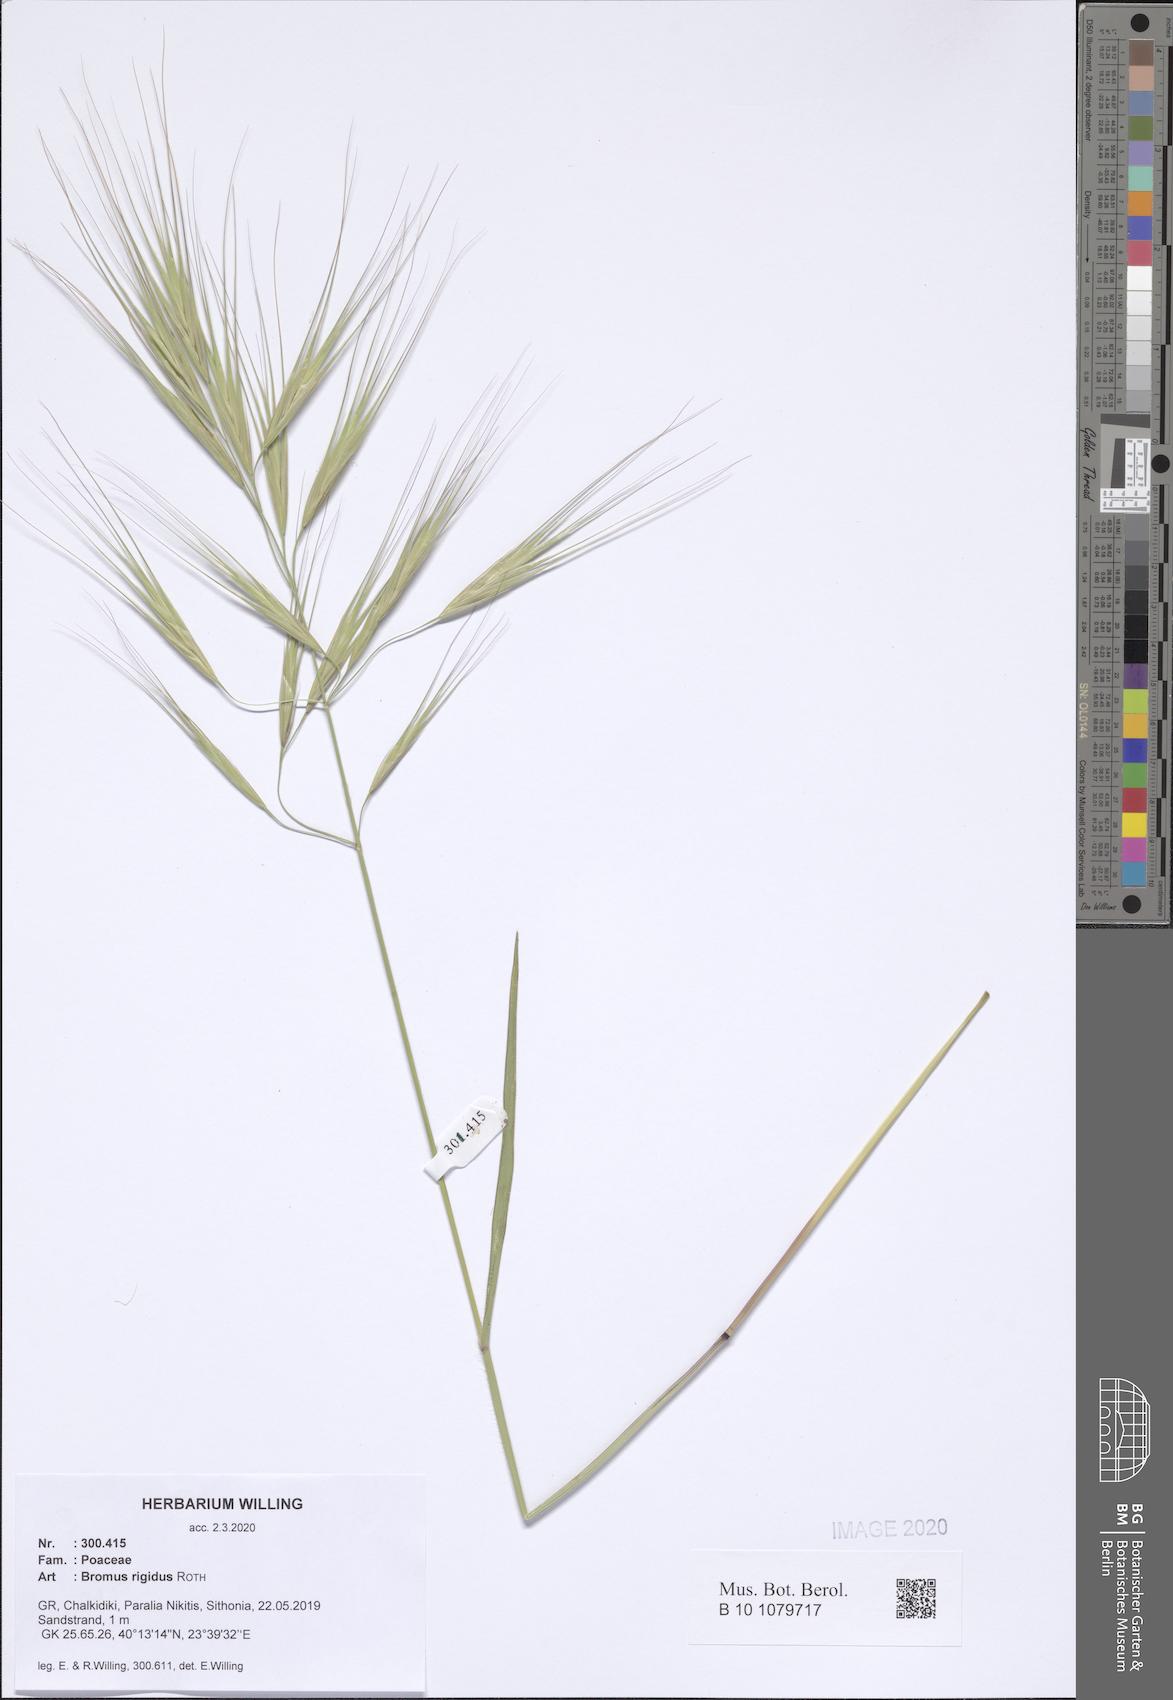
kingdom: Plantae
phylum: Tracheophyta
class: Liliopsida
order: Poales
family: Poaceae
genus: Bromus
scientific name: Bromus rigidus
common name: Ripgut brome
